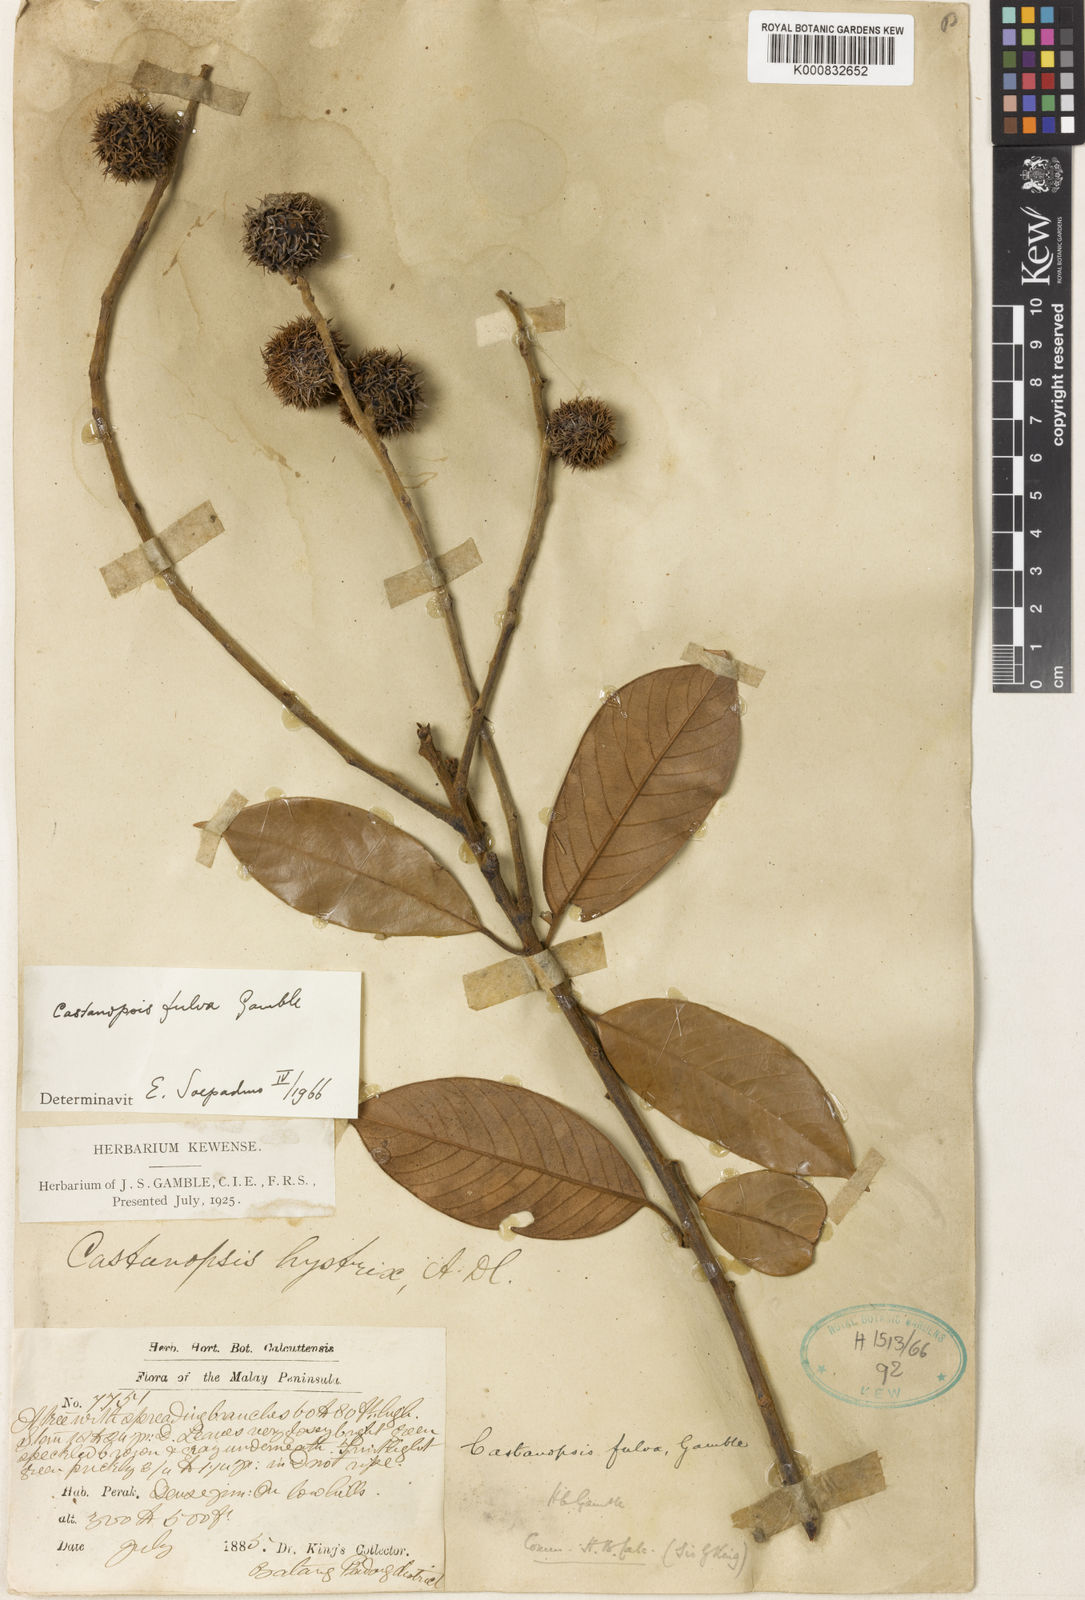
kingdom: Plantae
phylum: Tracheophyta
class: Magnoliopsida
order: Fagales
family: Fagaceae
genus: Castanopsis
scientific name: Castanopsis fulva
